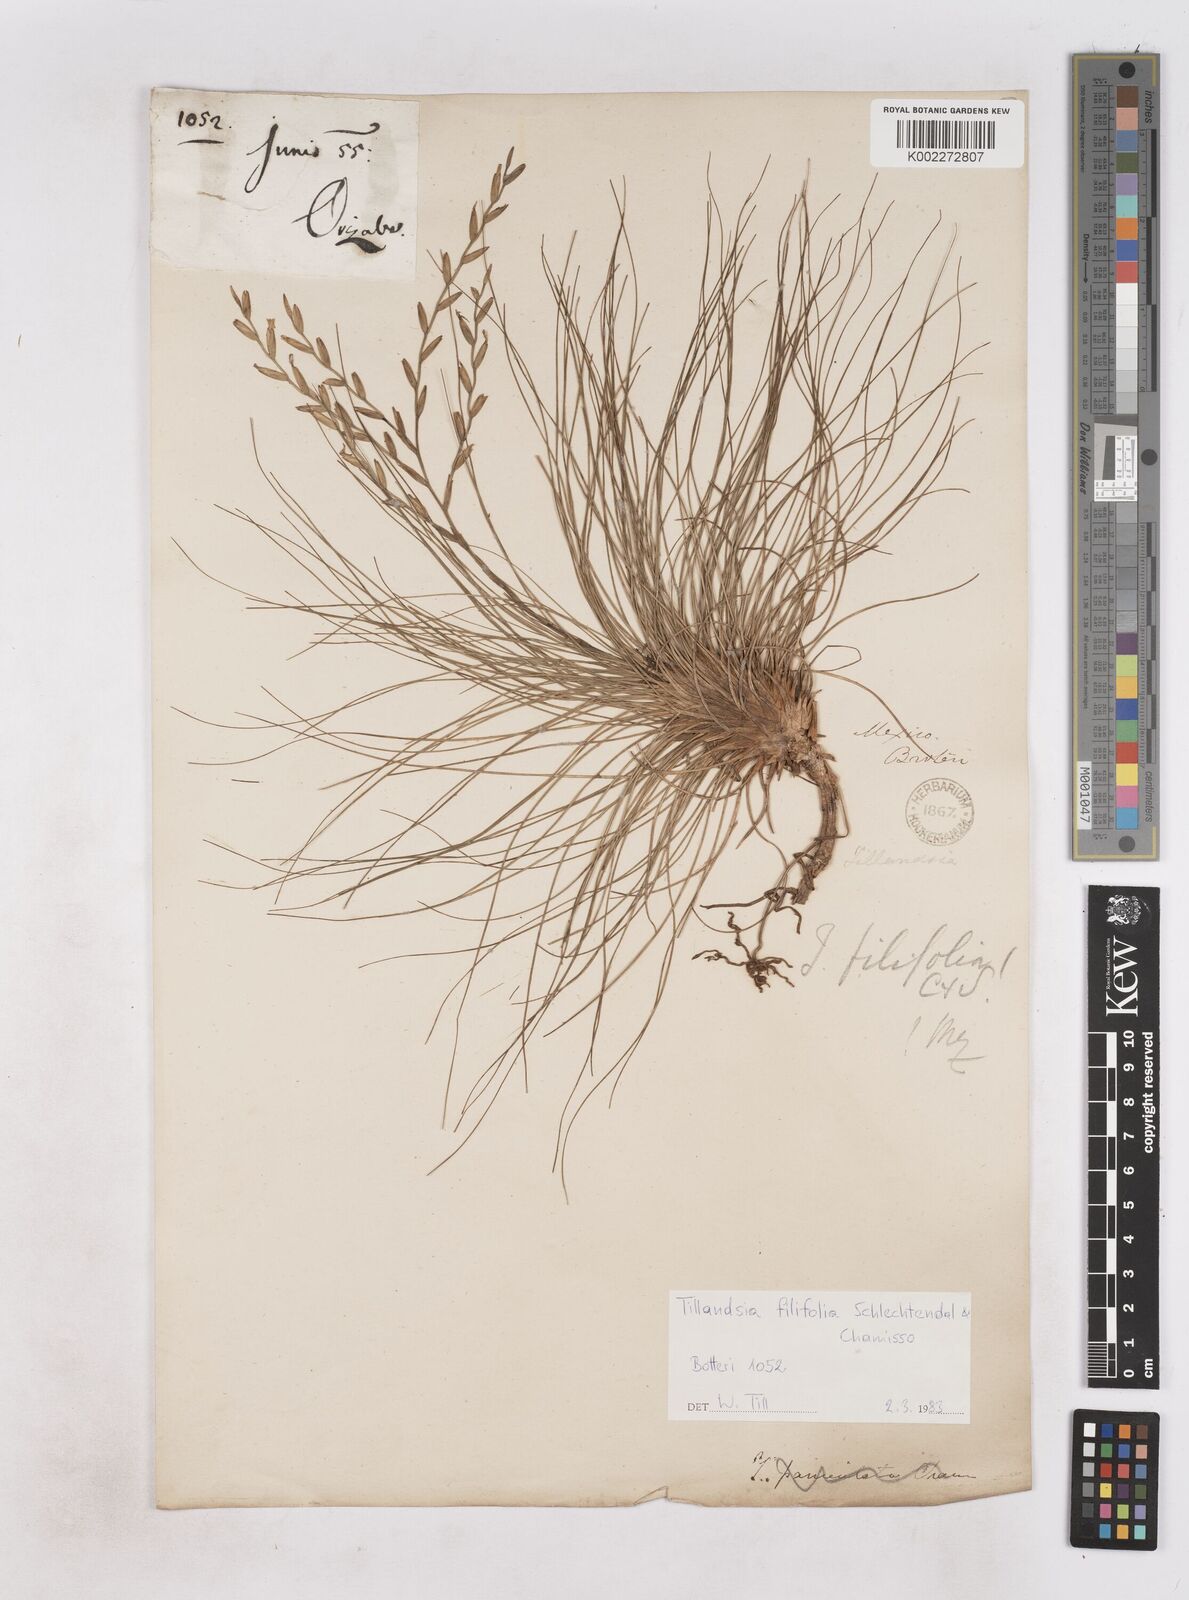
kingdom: Plantae
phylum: Tracheophyta
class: Liliopsida
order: Poales
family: Bromeliaceae
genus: Tillandsia
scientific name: Tillandsia filifolia
